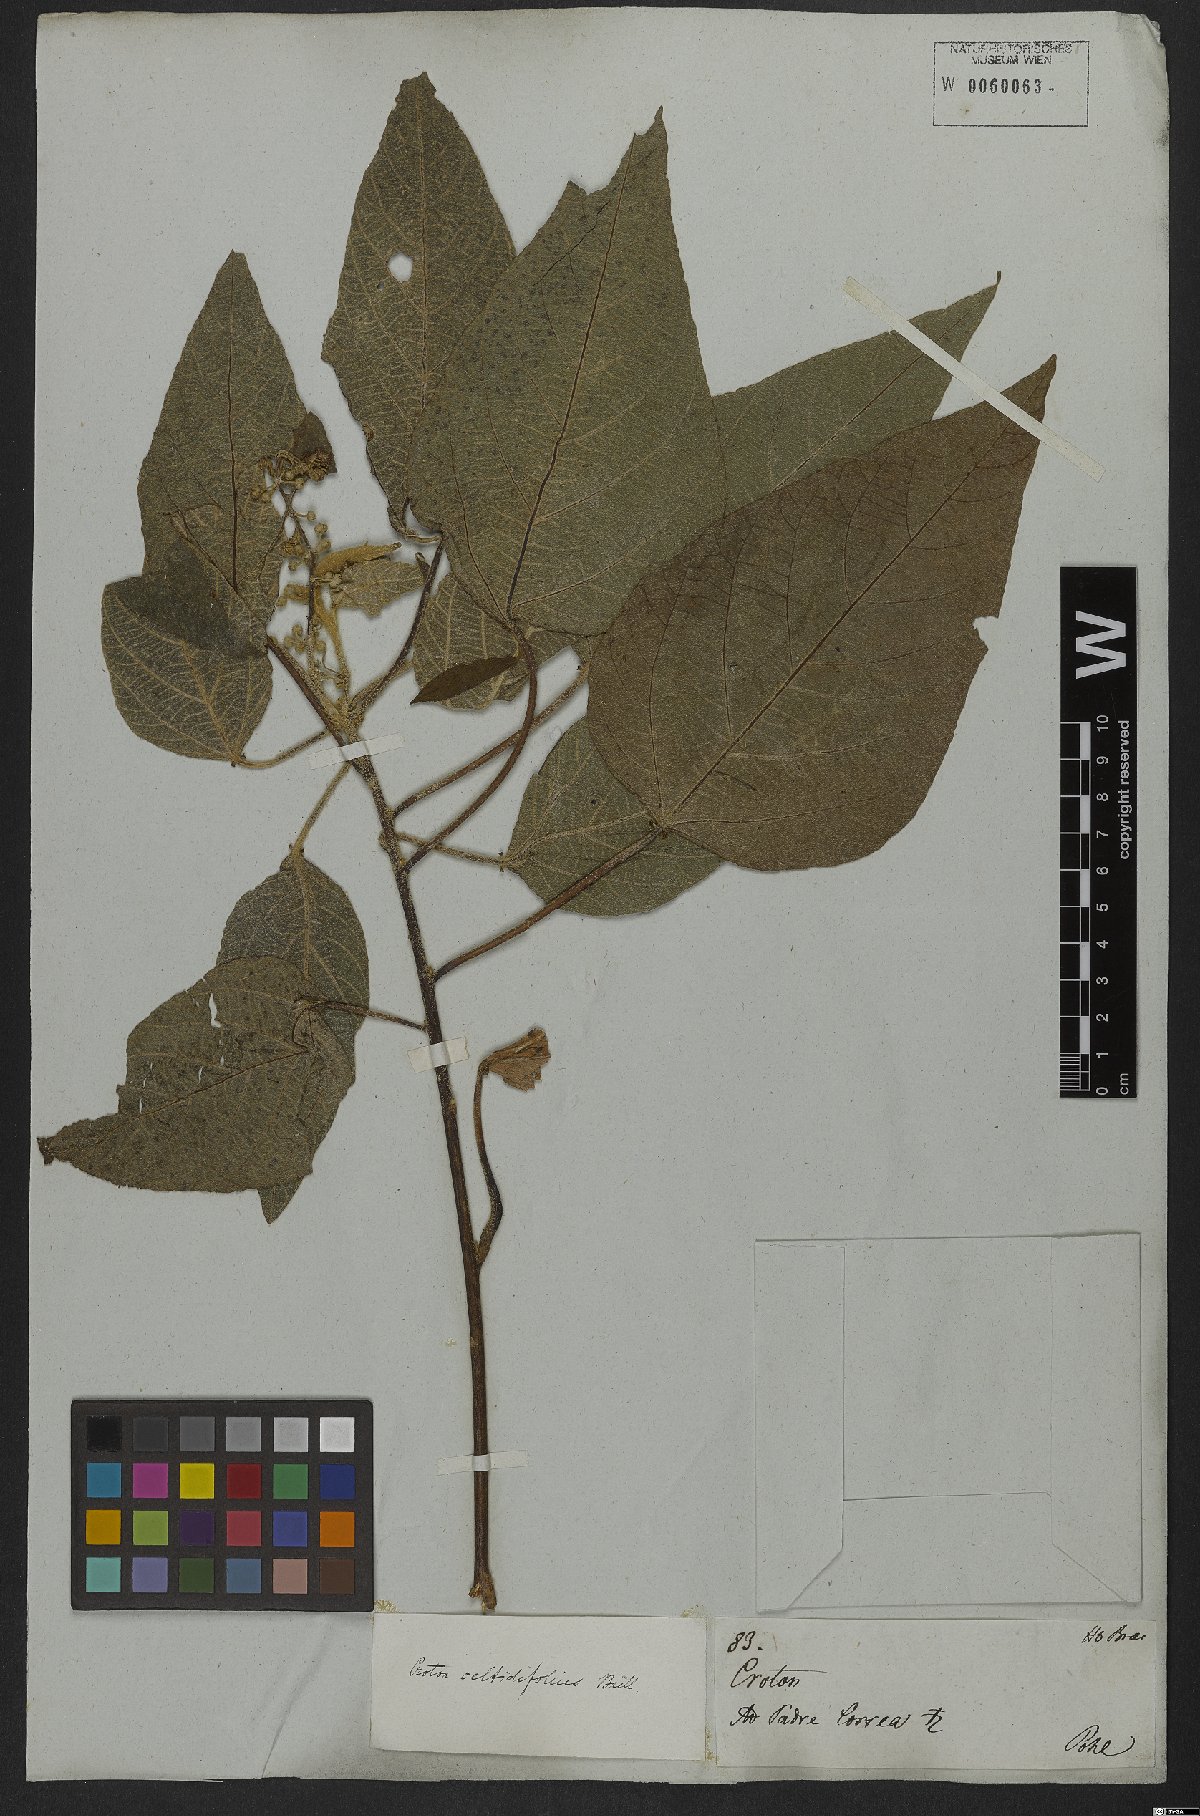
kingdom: Plantae
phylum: Tracheophyta
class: Magnoliopsida
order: Malpighiales
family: Euphorbiaceae
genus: Croton
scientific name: Croton celtidifolius
